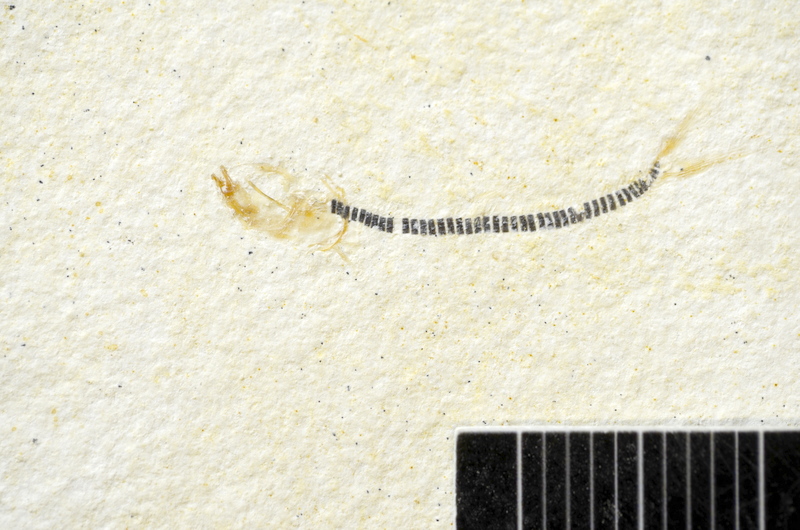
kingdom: Animalia
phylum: Chordata
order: Salmoniformes
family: Orthogonikleithridae
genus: Orthogonikleithrus
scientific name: Orthogonikleithrus hoelli
